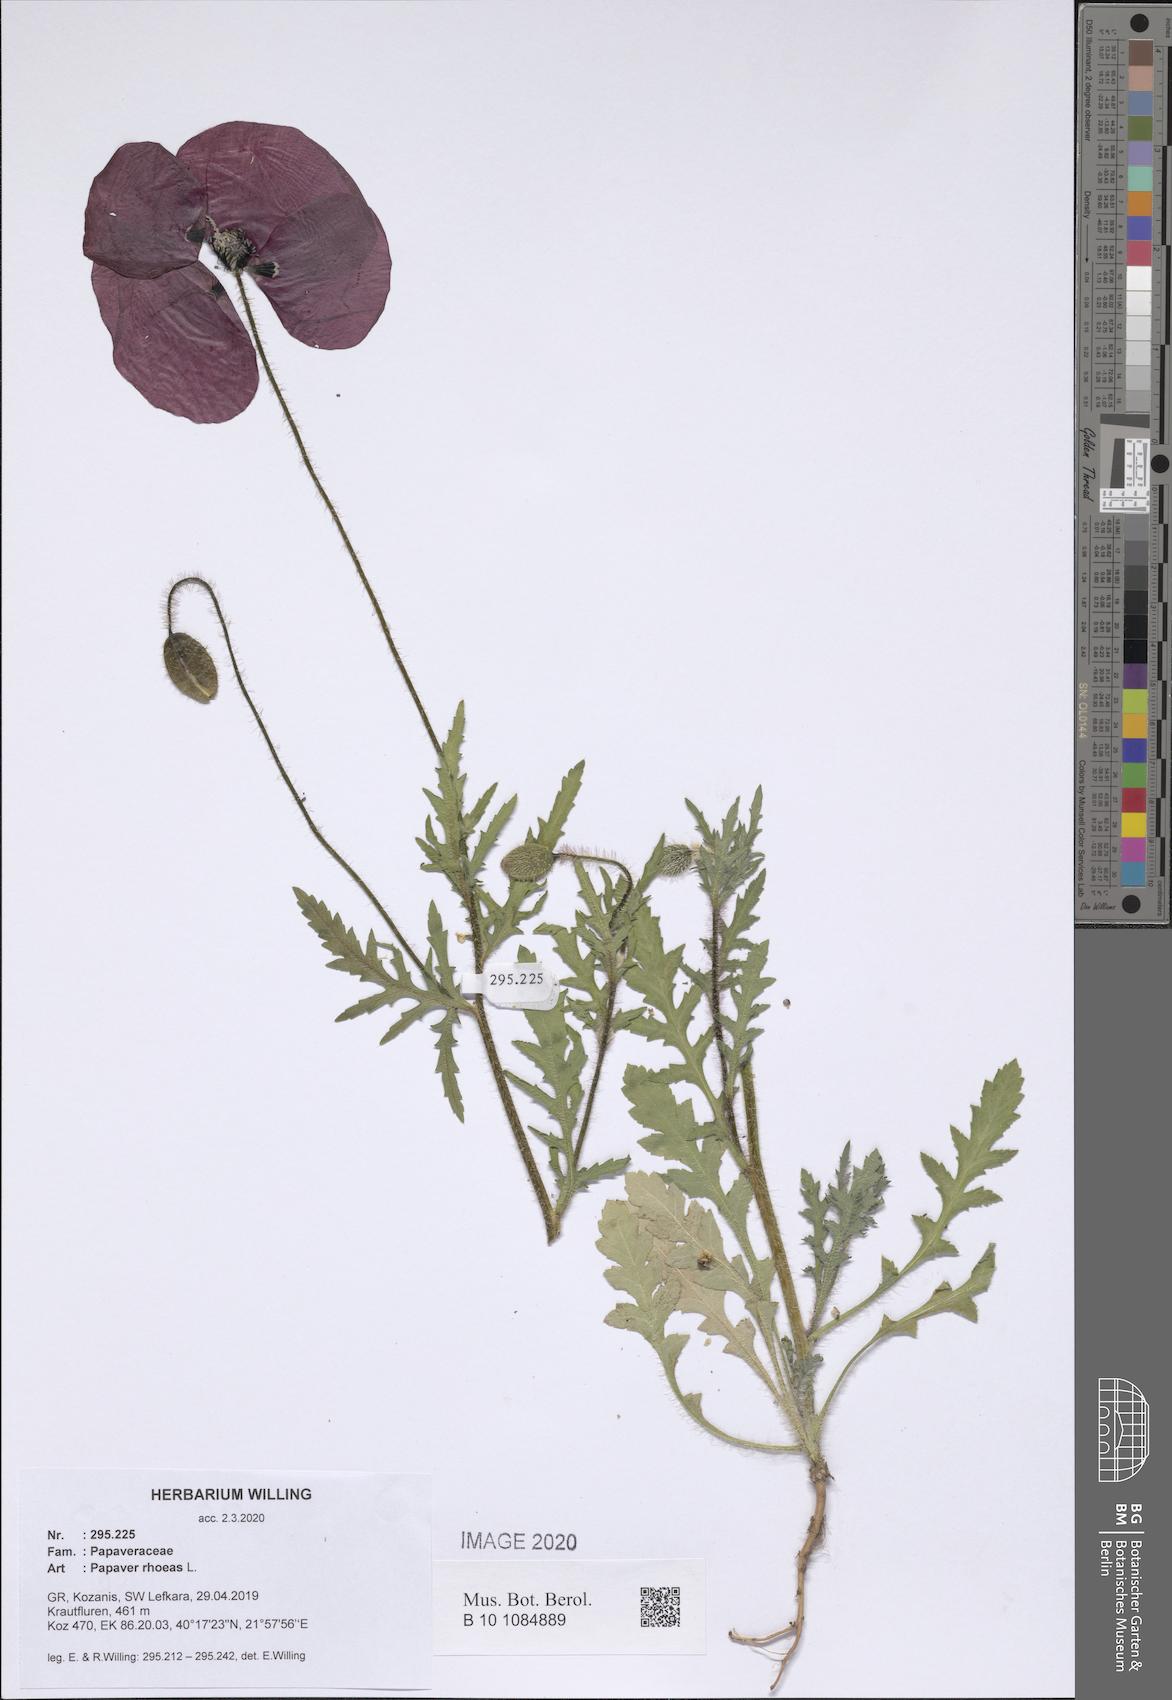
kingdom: Plantae
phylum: Tracheophyta
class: Magnoliopsida
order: Ranunculales
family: Papaveraceae
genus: Papaver
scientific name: Papaver rhoeas
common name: Corn poppy
